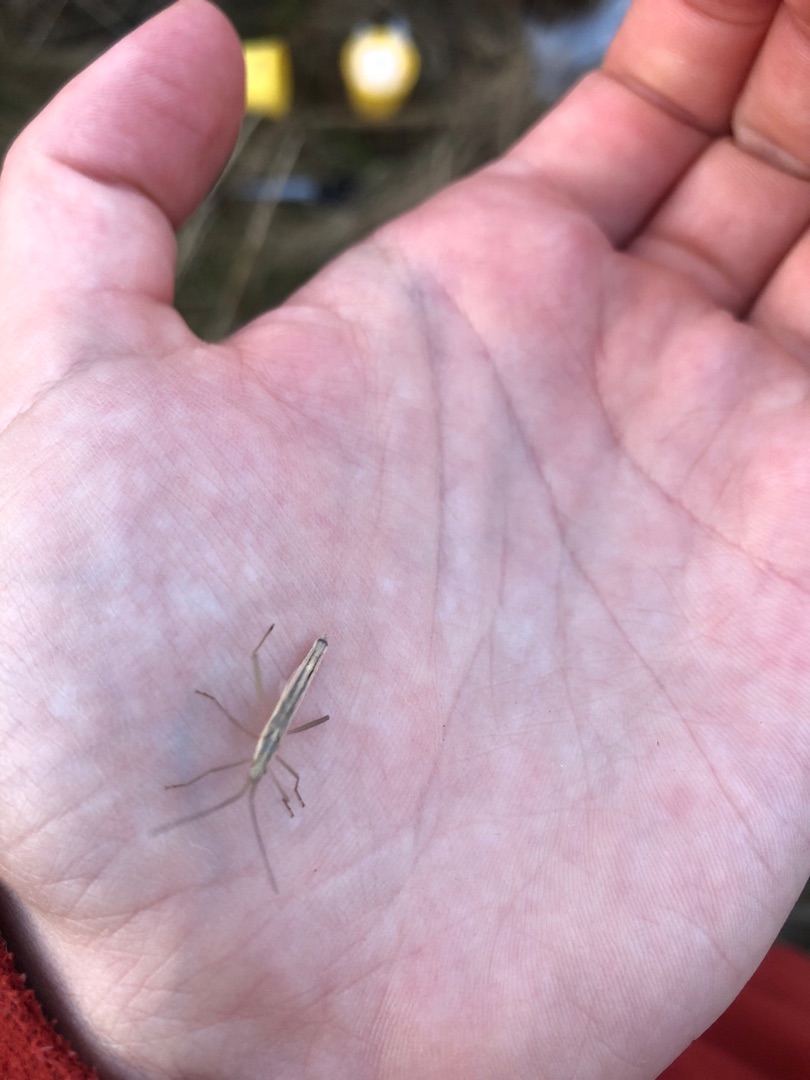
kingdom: Animalia
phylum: Arthropoda
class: Insecta
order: Hemiptera
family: Rhopalidae
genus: Chorosoma
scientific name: Chorosoma schillingii
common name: Lang stråtæge
